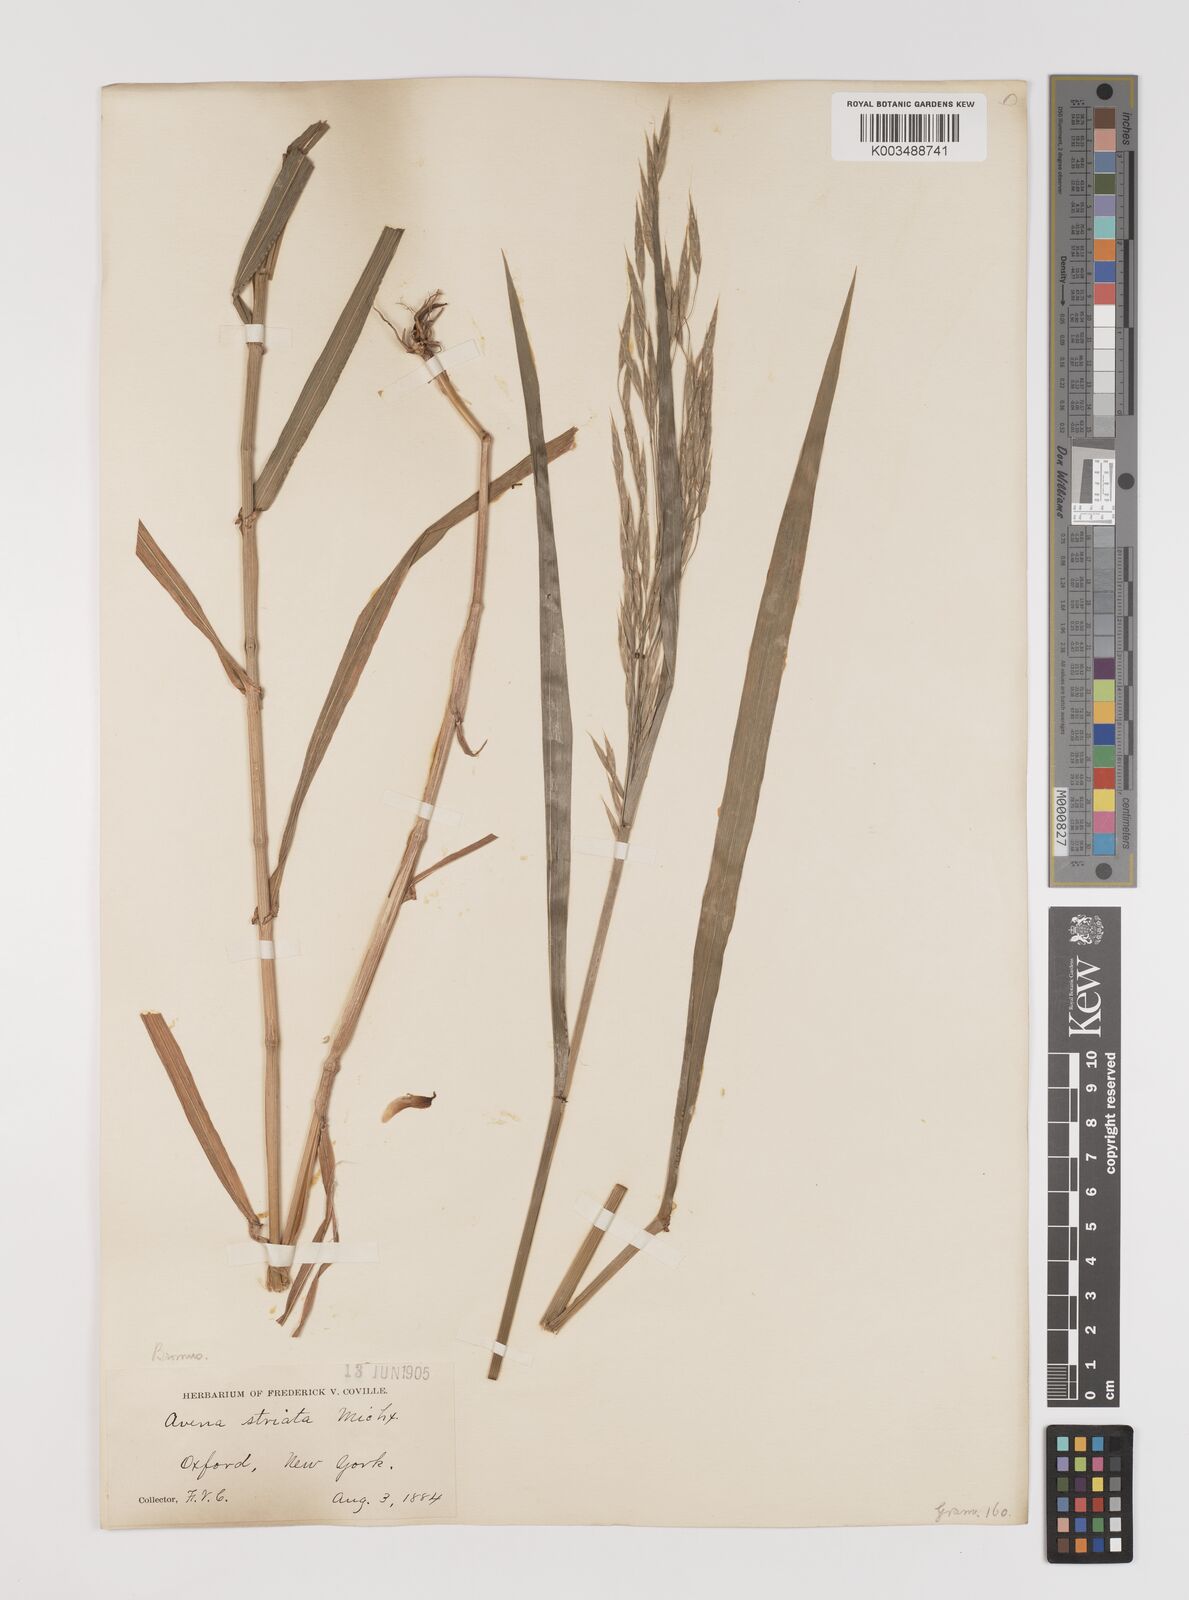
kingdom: Plantae
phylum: Tracheophyta
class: Liliopsida
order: Poales
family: Poaceae
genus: Bromus
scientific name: Bromus
